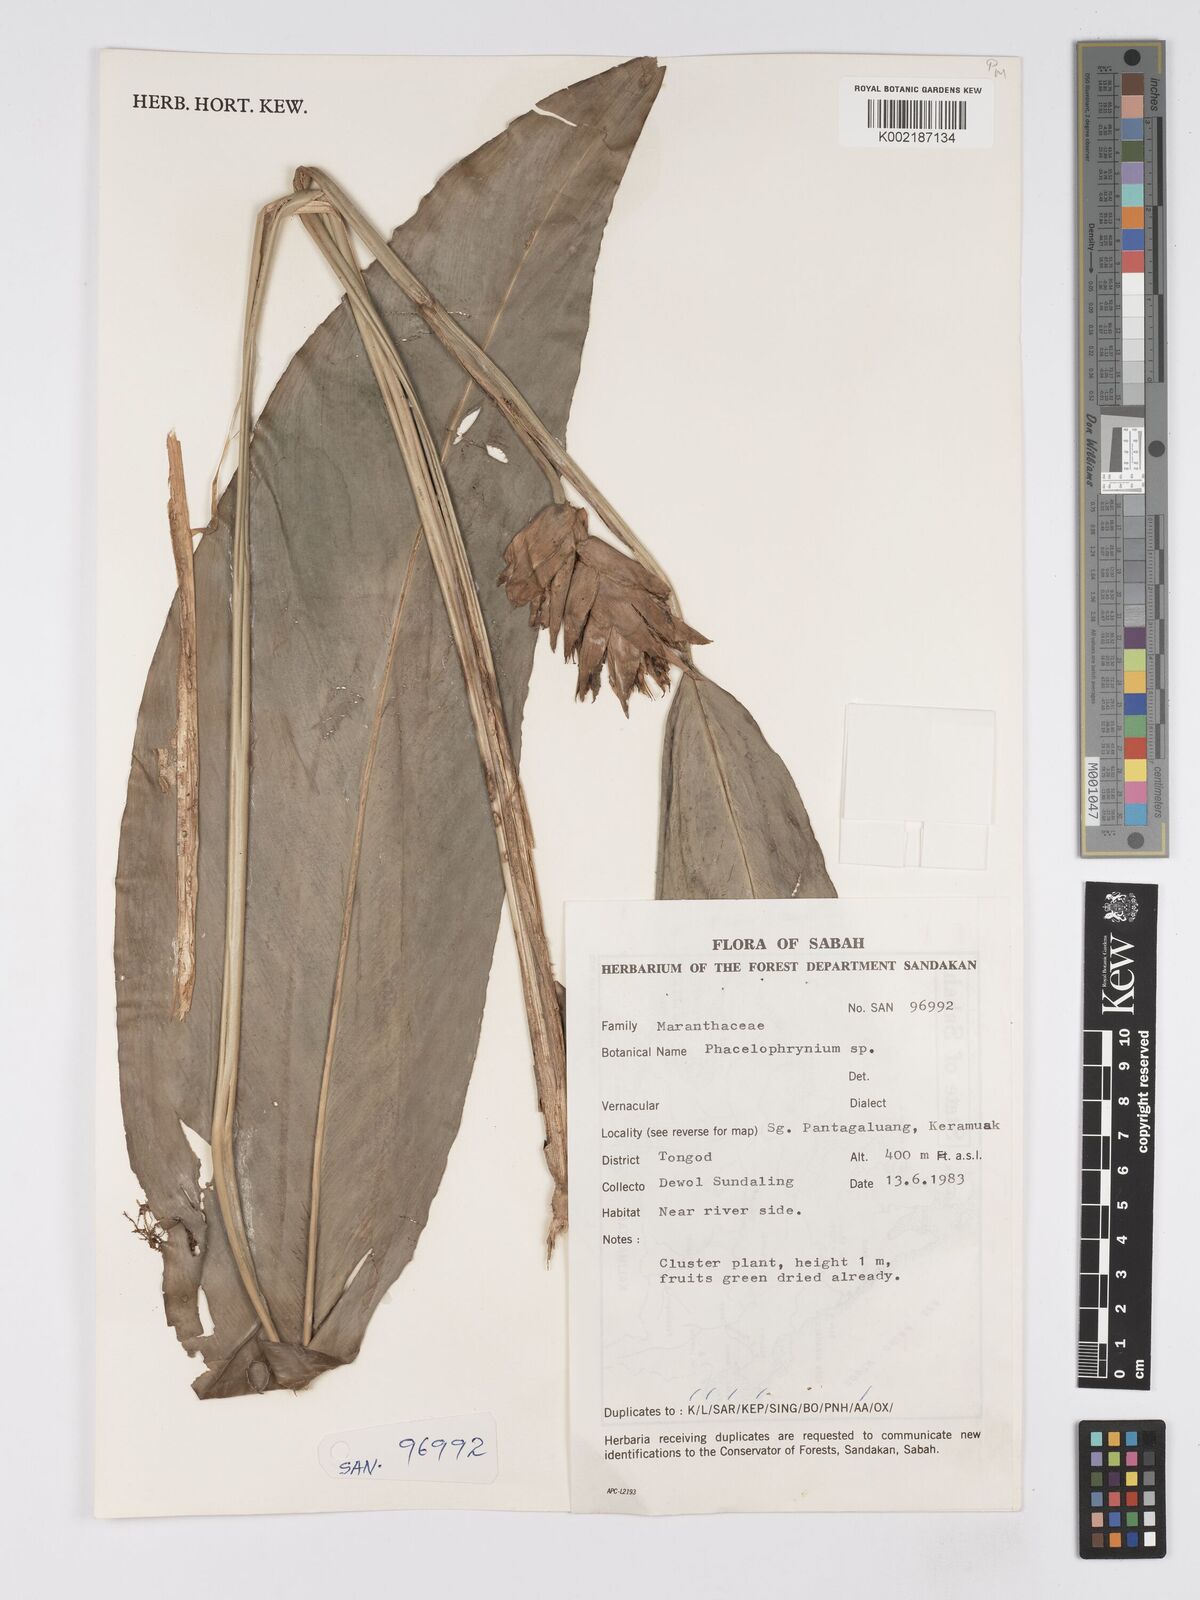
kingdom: Plantae
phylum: Tracheophyta
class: Liliopsida
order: Zingiberales
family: Marantaceae
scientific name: Marantaceae
